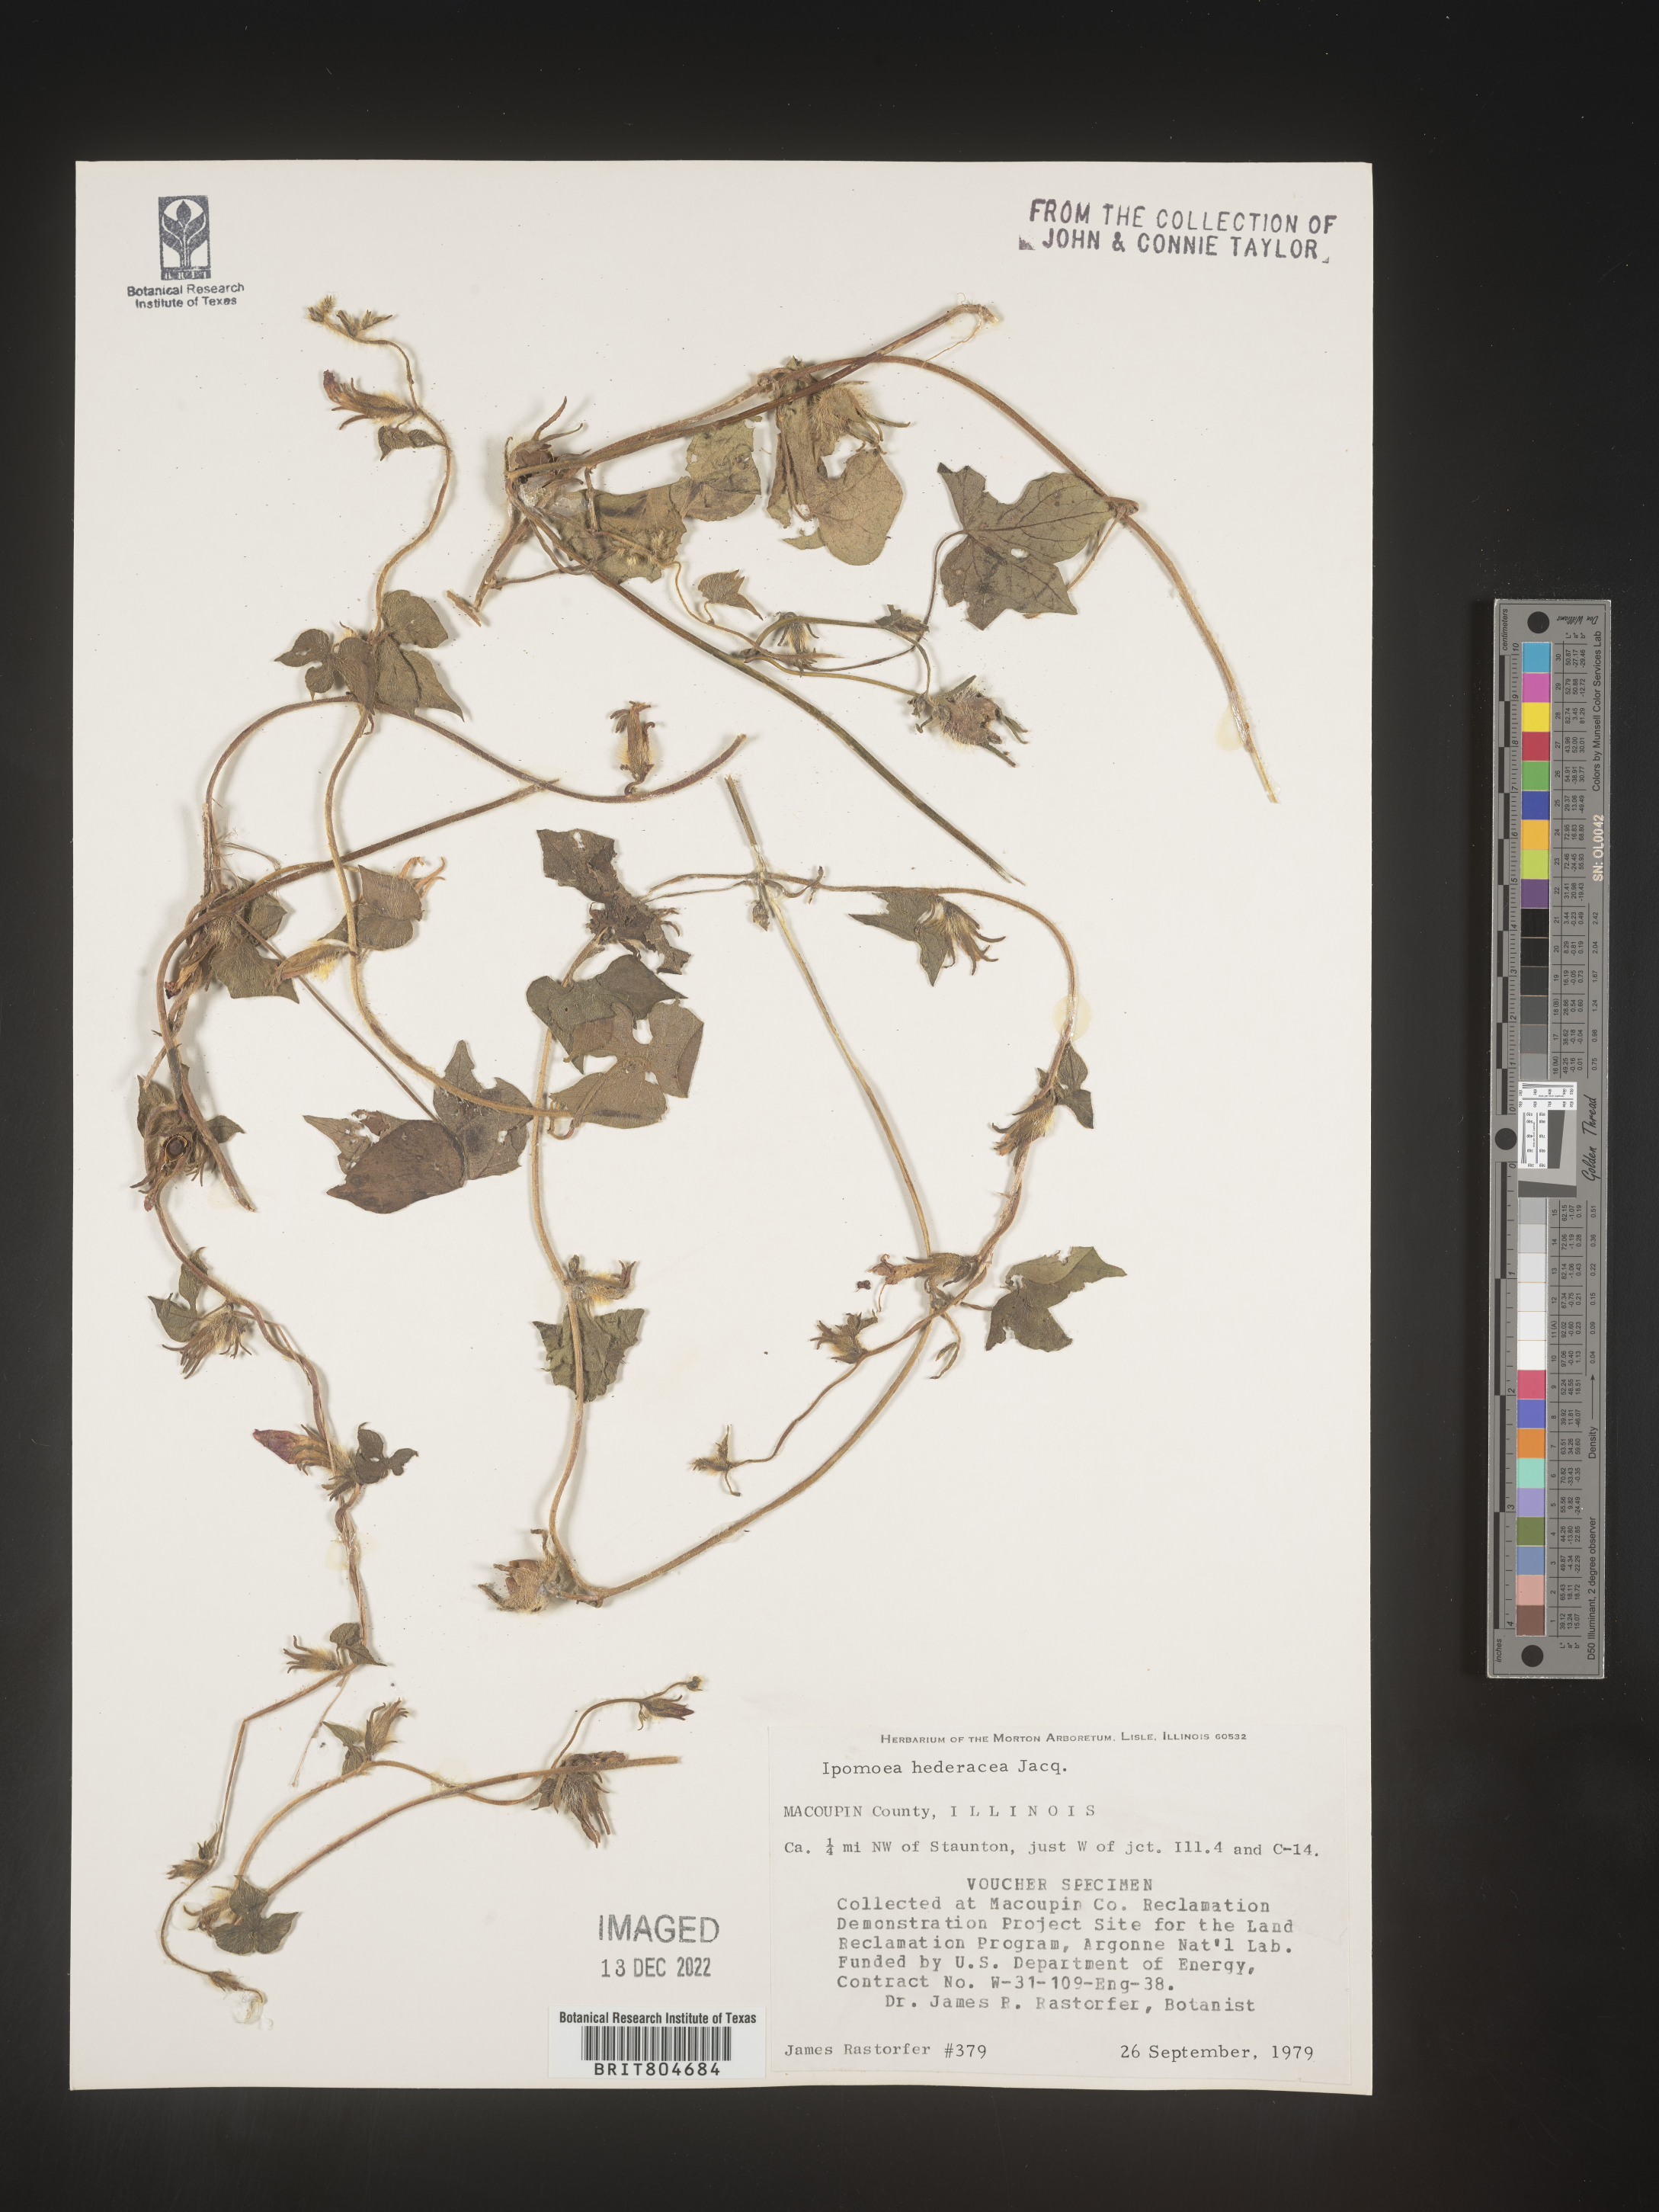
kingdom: Plantae
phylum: Tracheophyta
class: Magnoliopsida
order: Solanales
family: Convolvulaceae
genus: Ipomoea
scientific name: Ipomoea hederacea
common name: Ivy-leaved morning-glory
